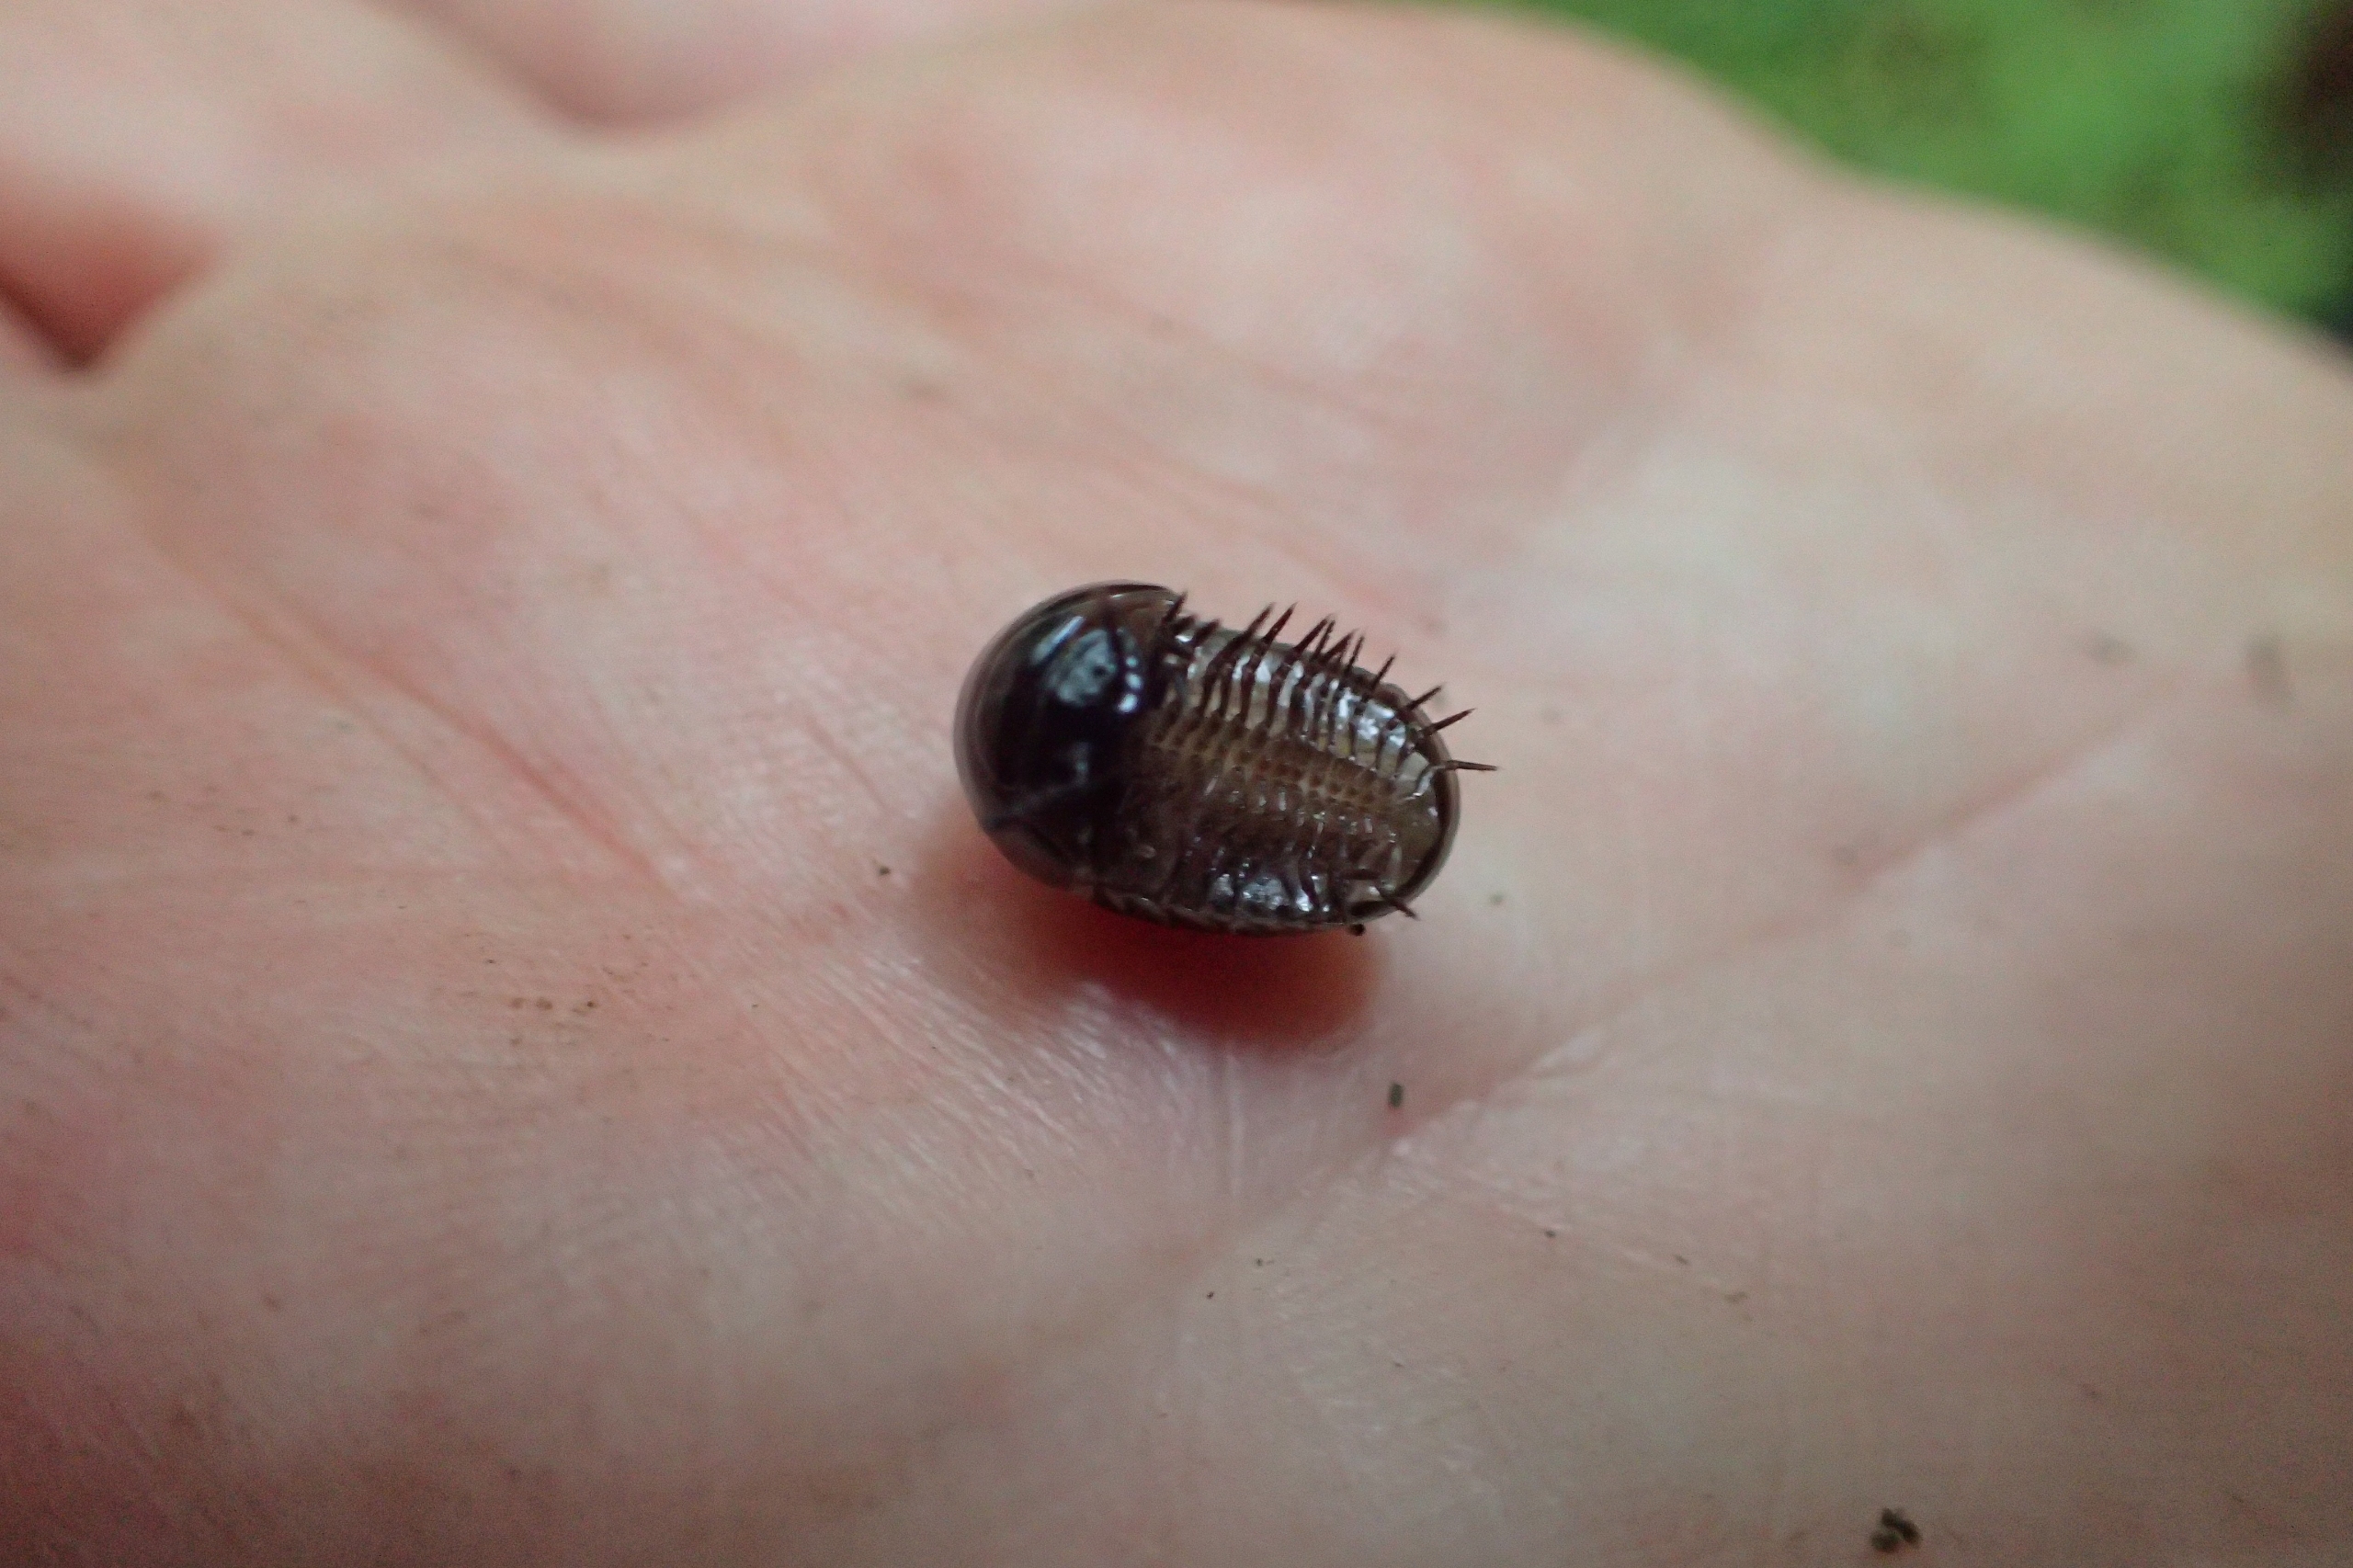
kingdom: Animalia
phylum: Arthropoda
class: Diplopoda
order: Glomerida
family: Glomeridae
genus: Glomeris
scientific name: Glomeris marginata
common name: Kugletusindben
